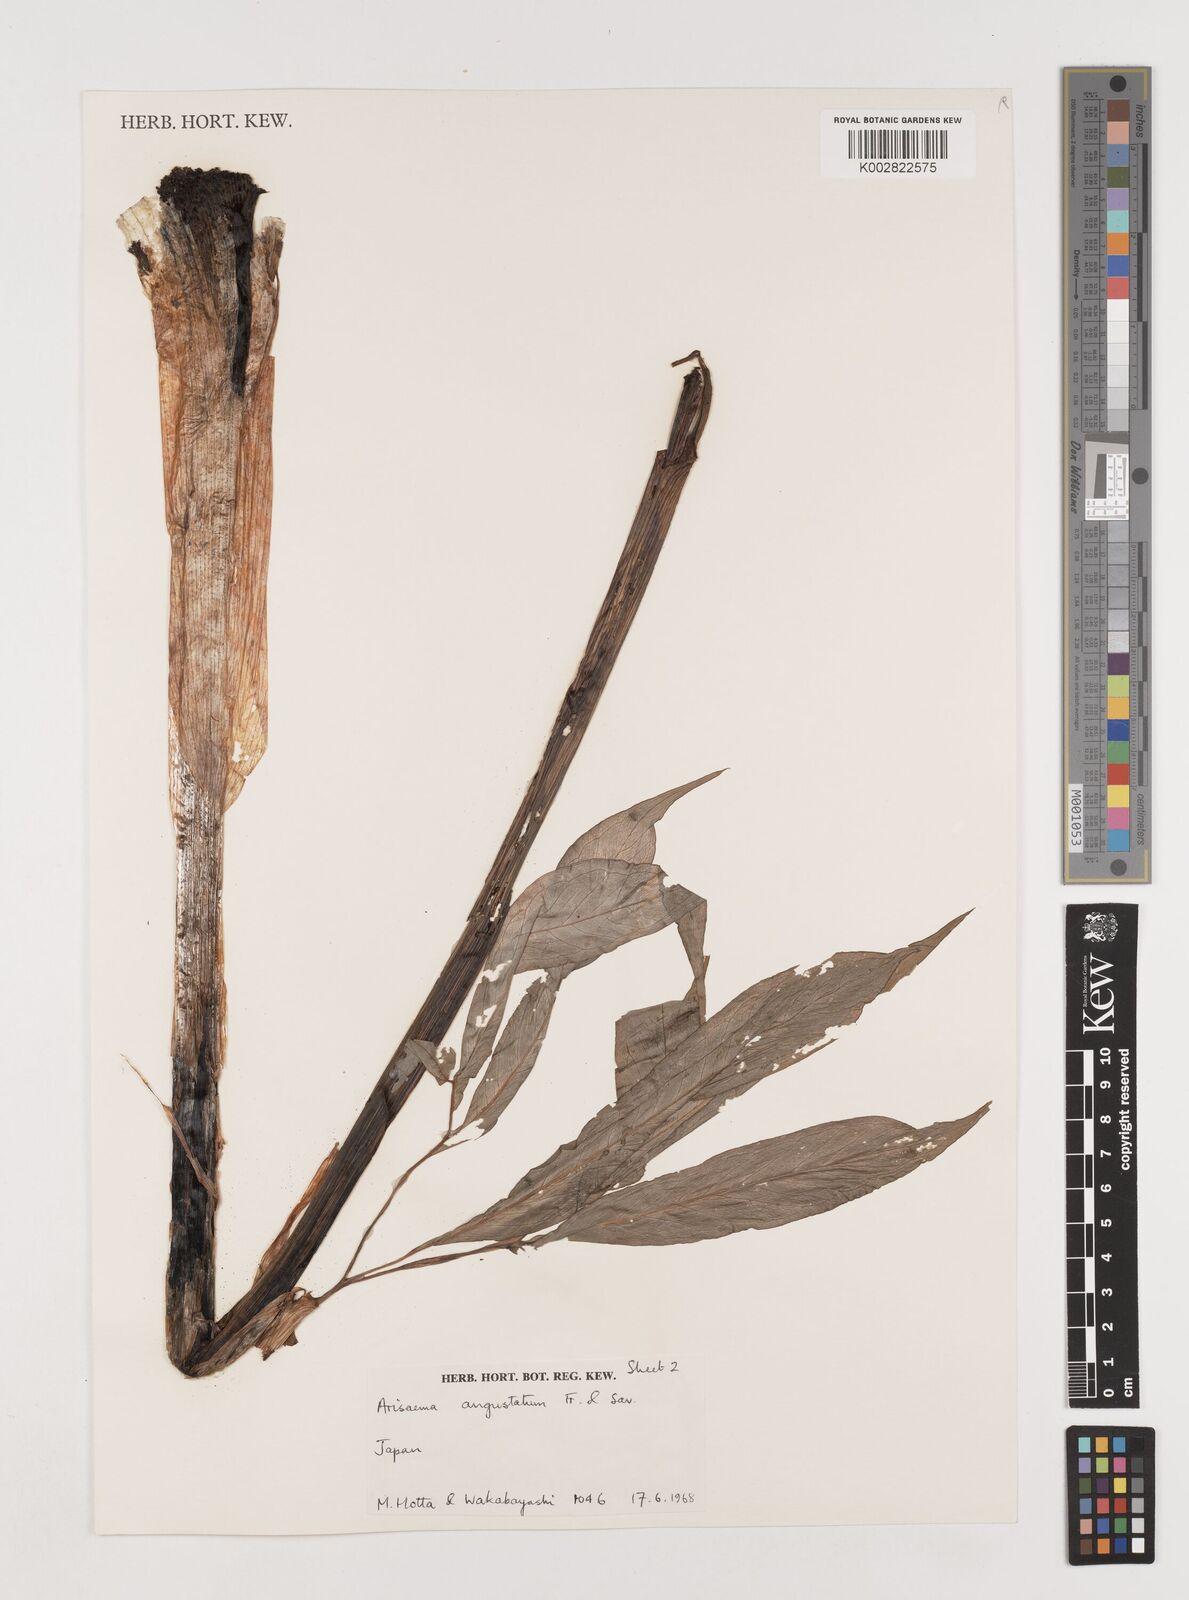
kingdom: Plantae
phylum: Tracheophyta
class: Liliopsida
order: Alismatales
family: Araceae
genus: Arisaema
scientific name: Arisaema serratum
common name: Japanese arisaema
